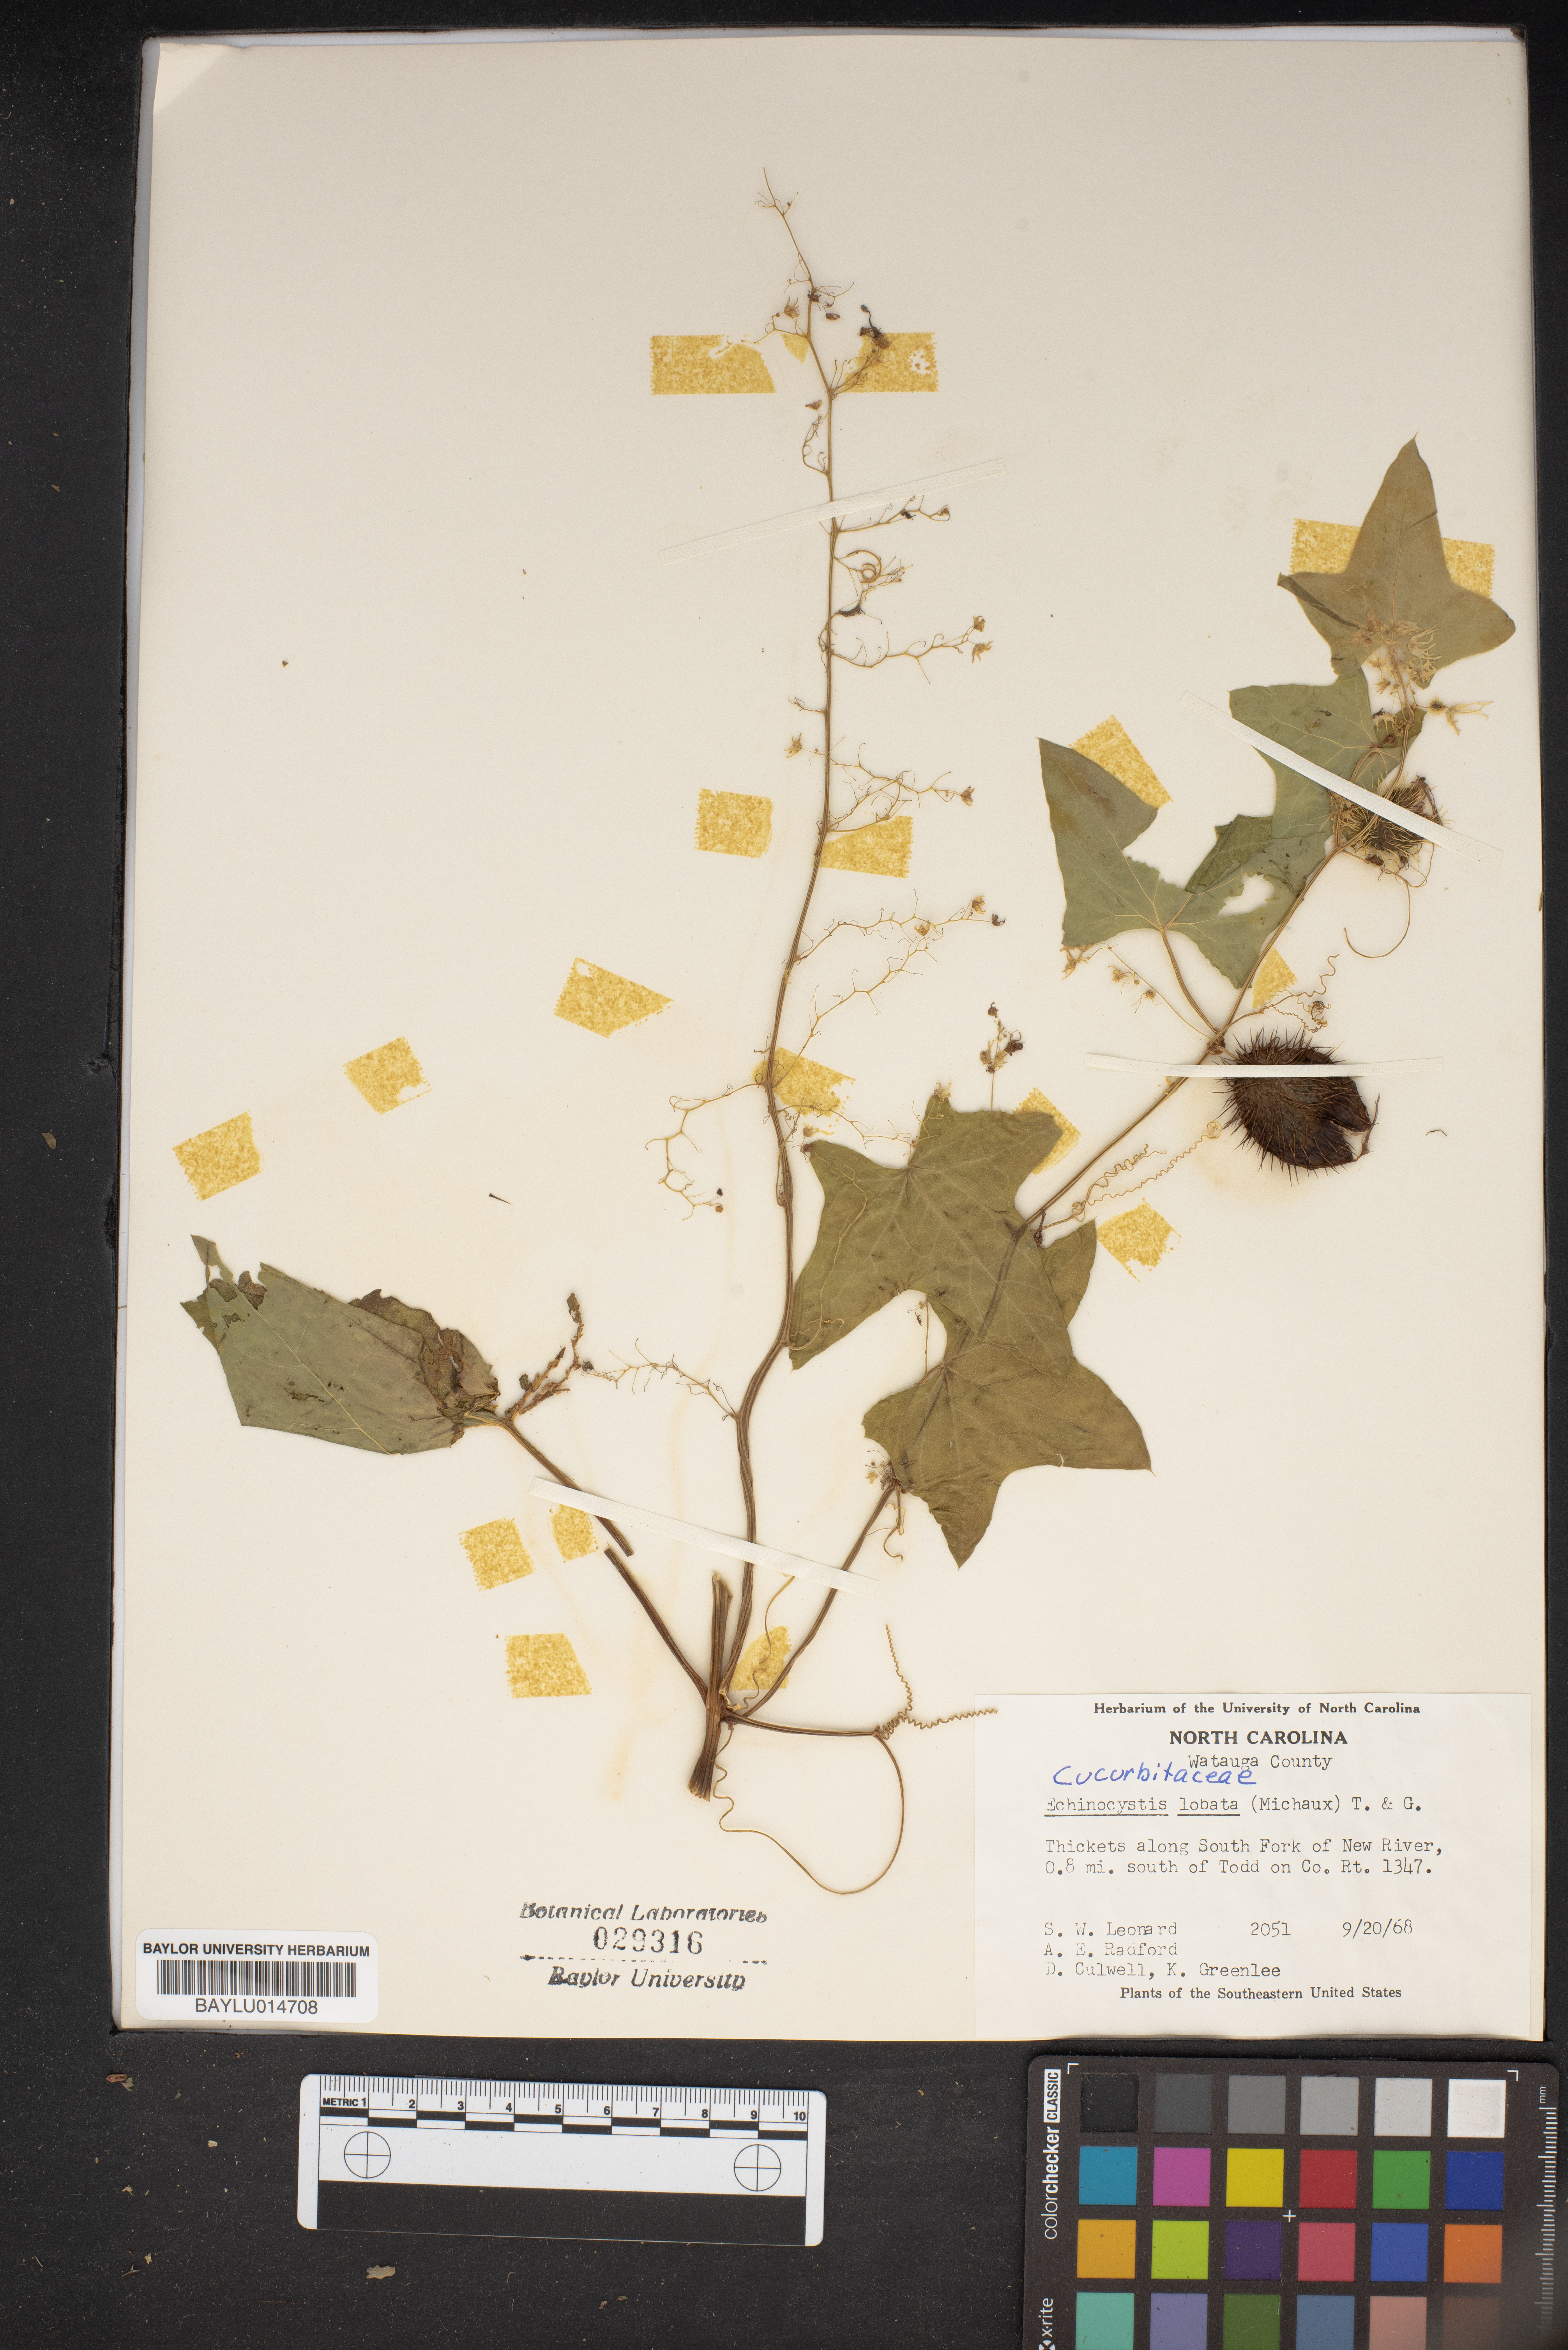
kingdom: Plantae
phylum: Tracheophyta
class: Magnoliopsida
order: Cucurbitales
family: Cucurbitaceae
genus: Echinocystis
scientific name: Echinocystis lobata
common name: Wild cucumber
